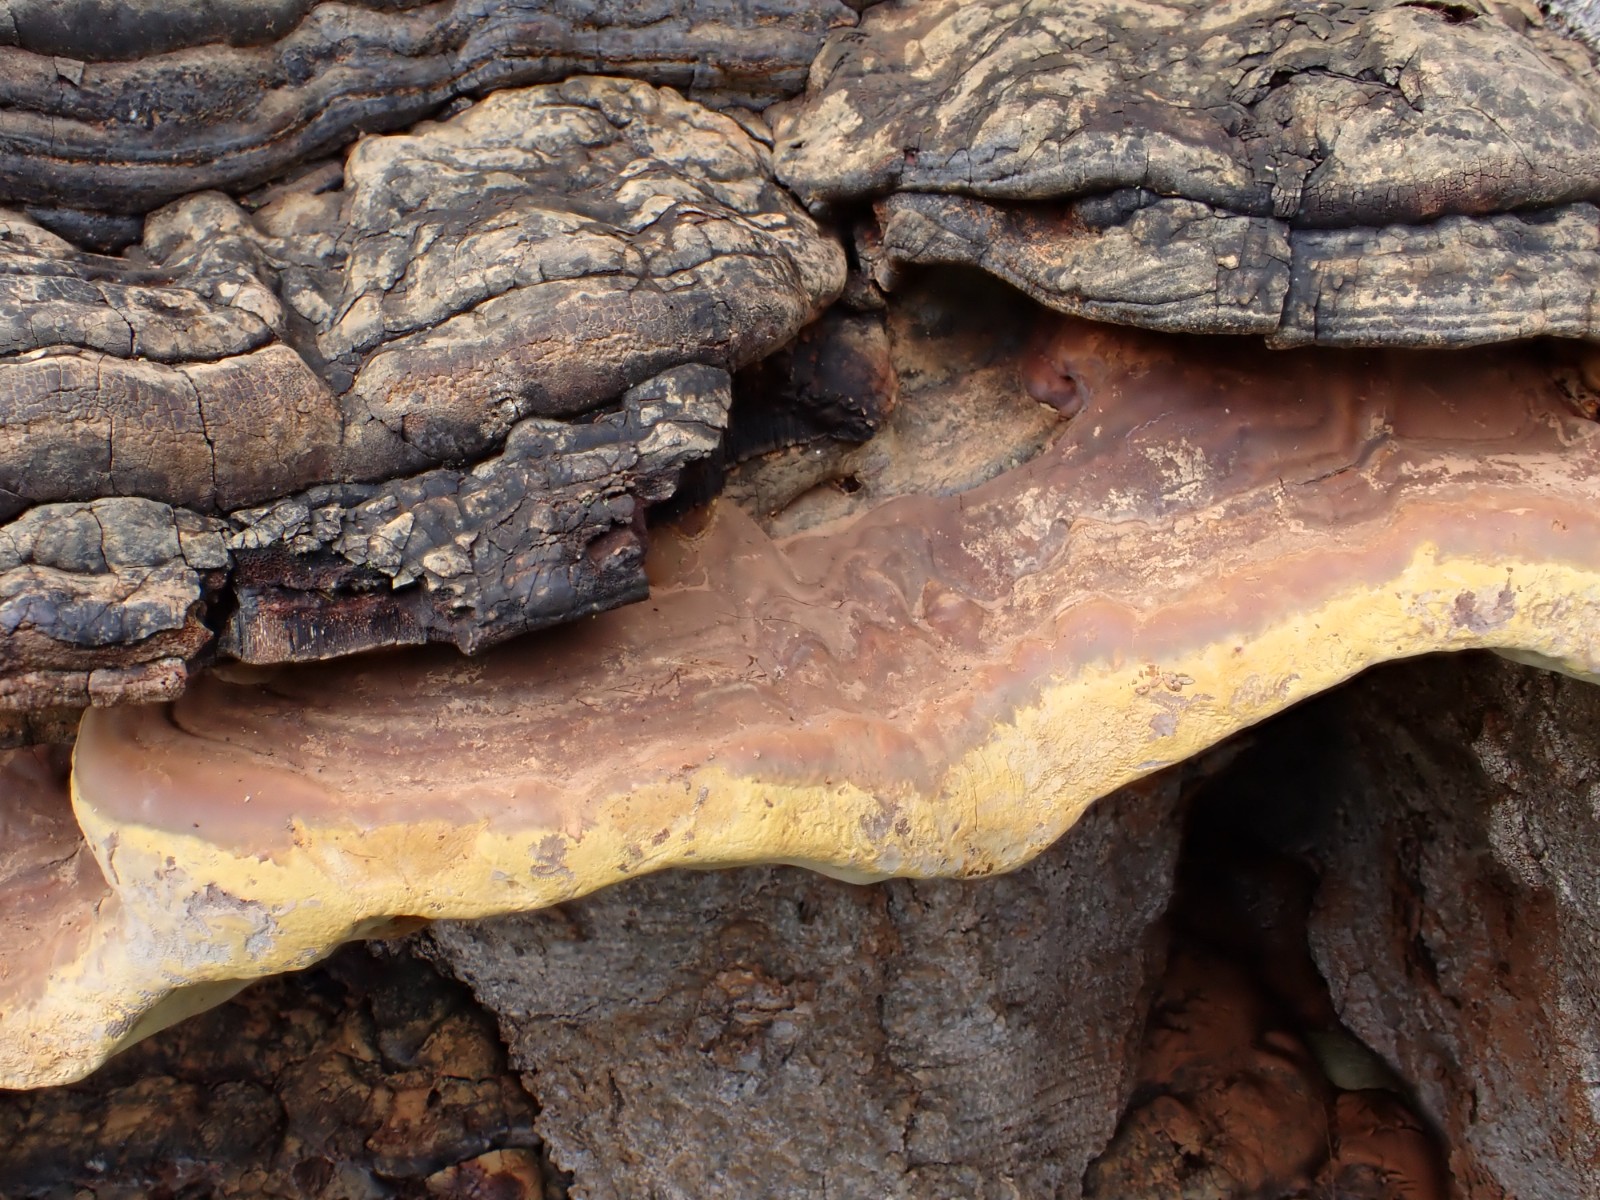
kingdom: Fungi
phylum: Basidiomycota
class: Agaricomycetes
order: Polyporales
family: Polyporaceae
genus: Ganoderma
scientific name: Ganoderma pfeifferi
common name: kobberrød lakporesvamp
